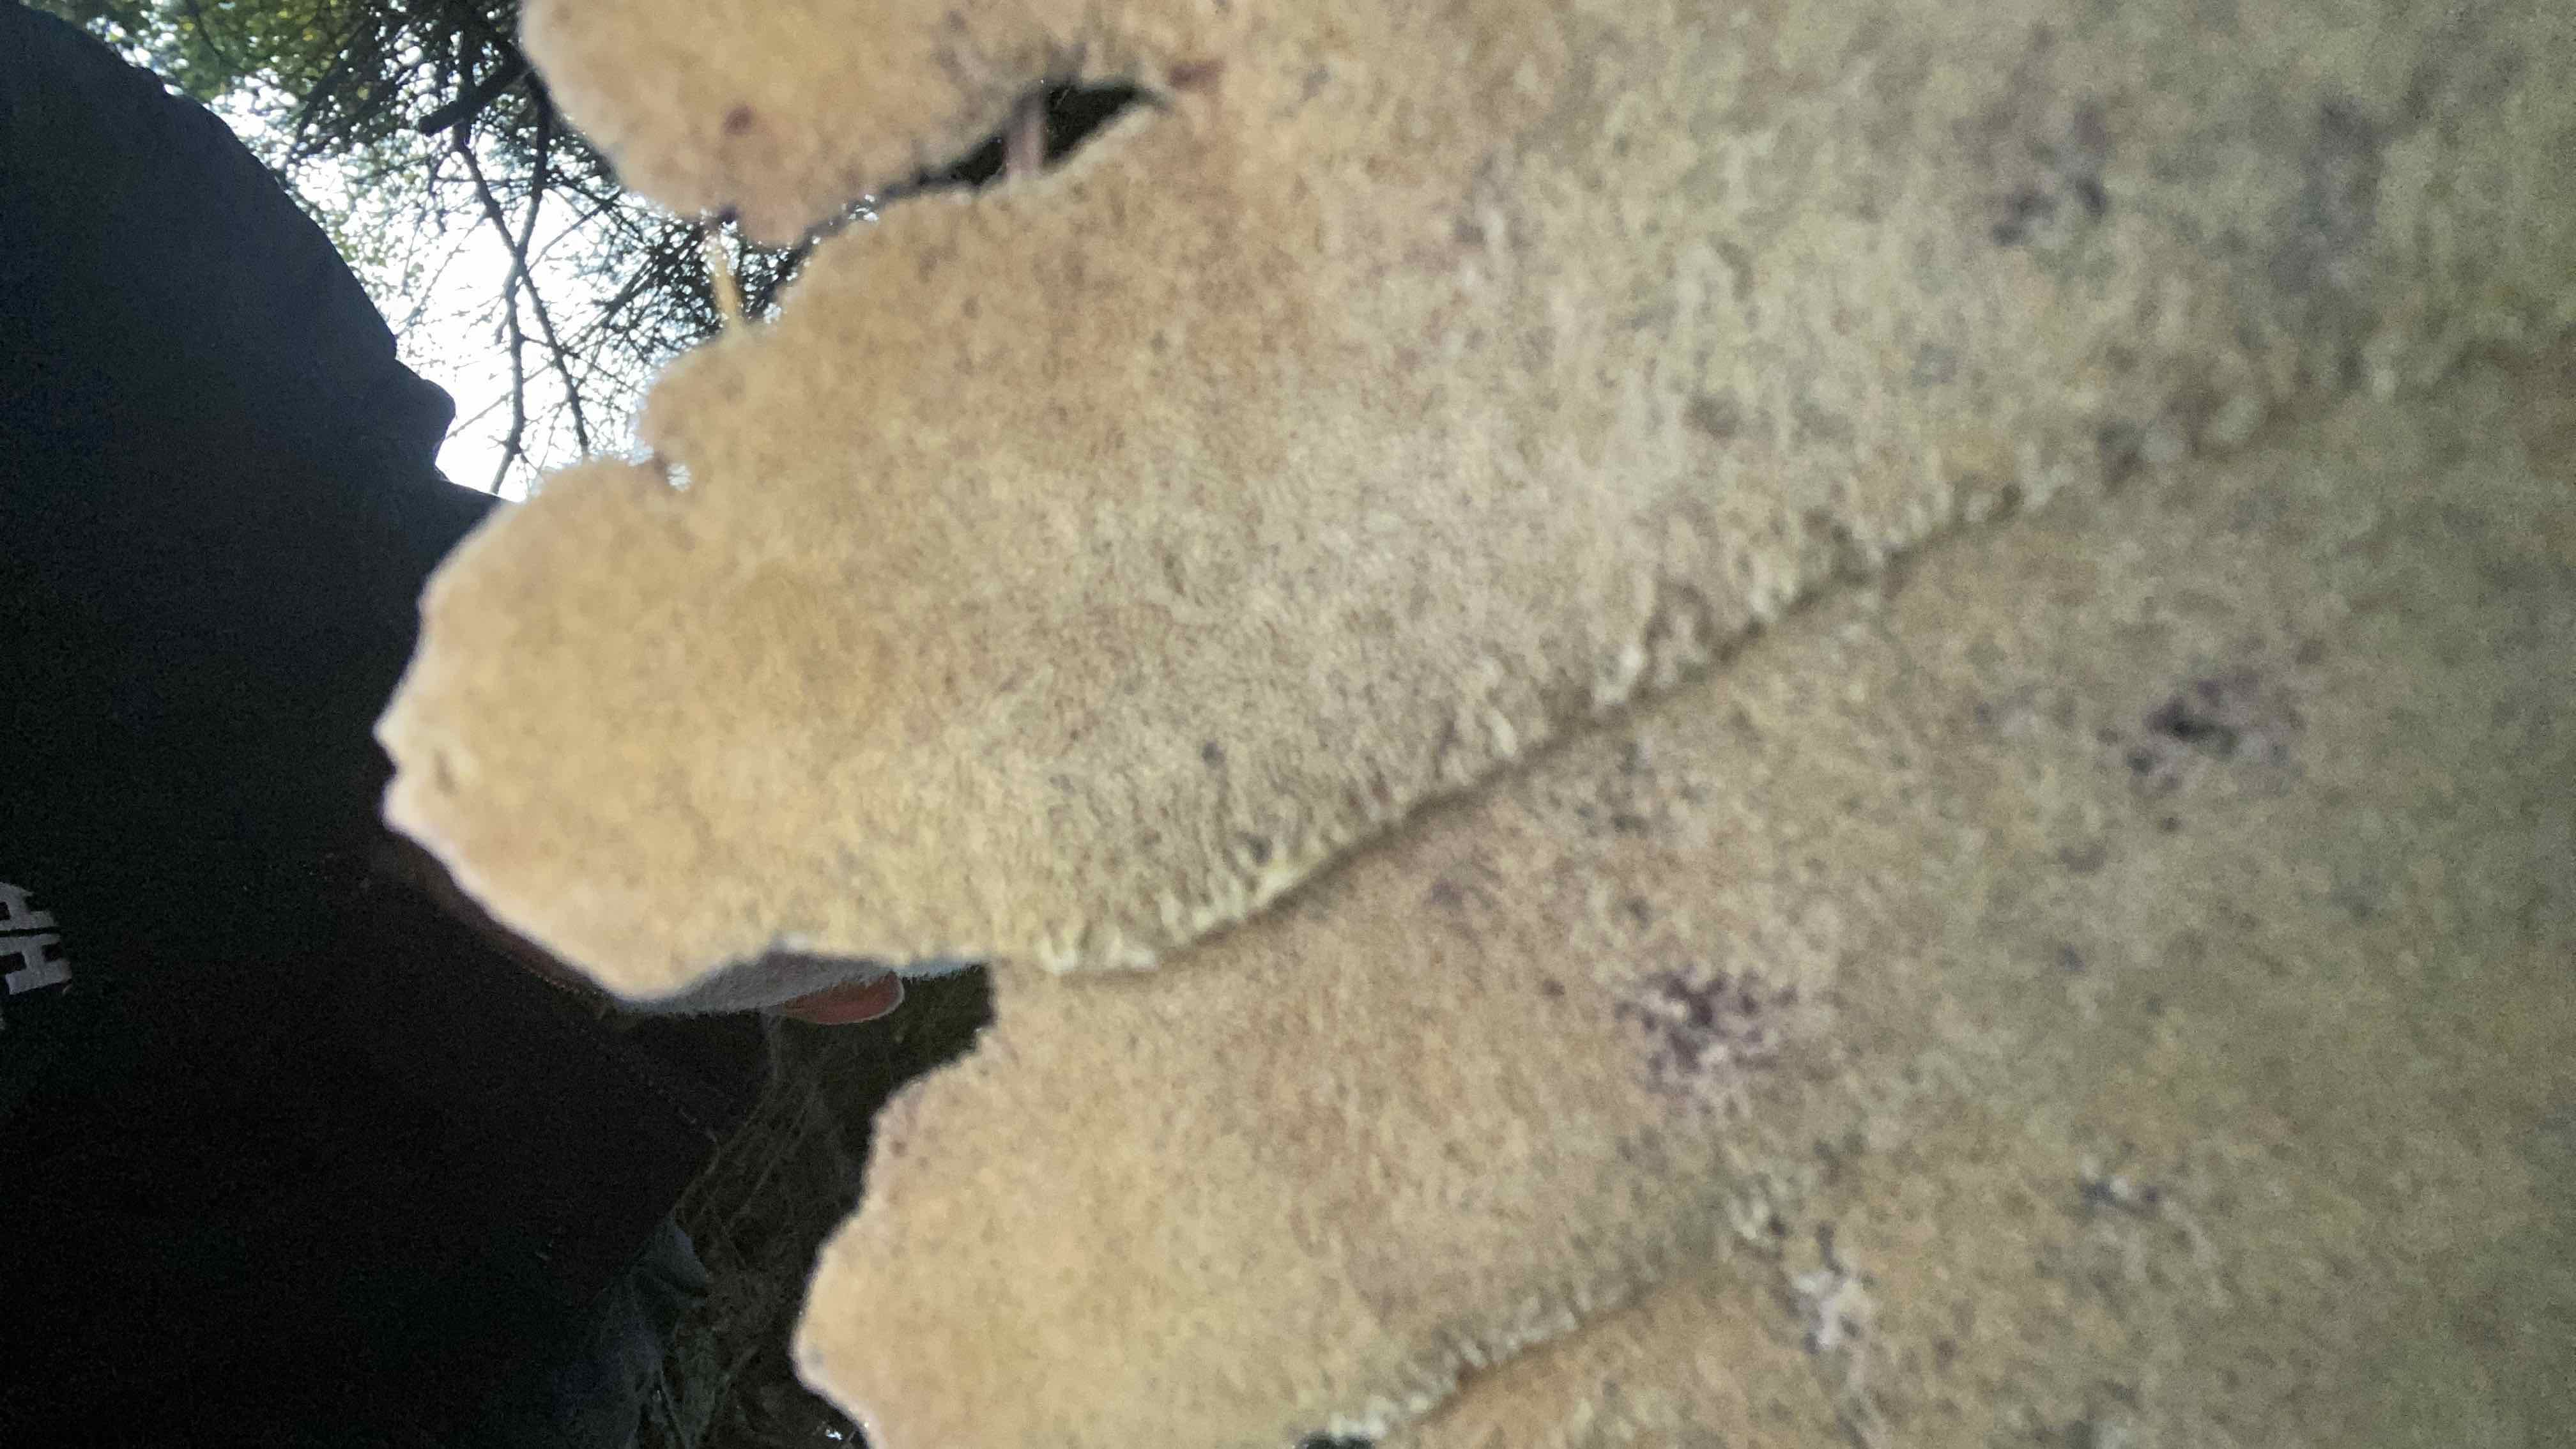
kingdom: Fungi
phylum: Basidiomycota
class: Agaricomycetes
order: Polyporales
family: Laetiporaceae
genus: Phaeolus
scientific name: Phaeolus schweinitzii
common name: brunporesvamp
